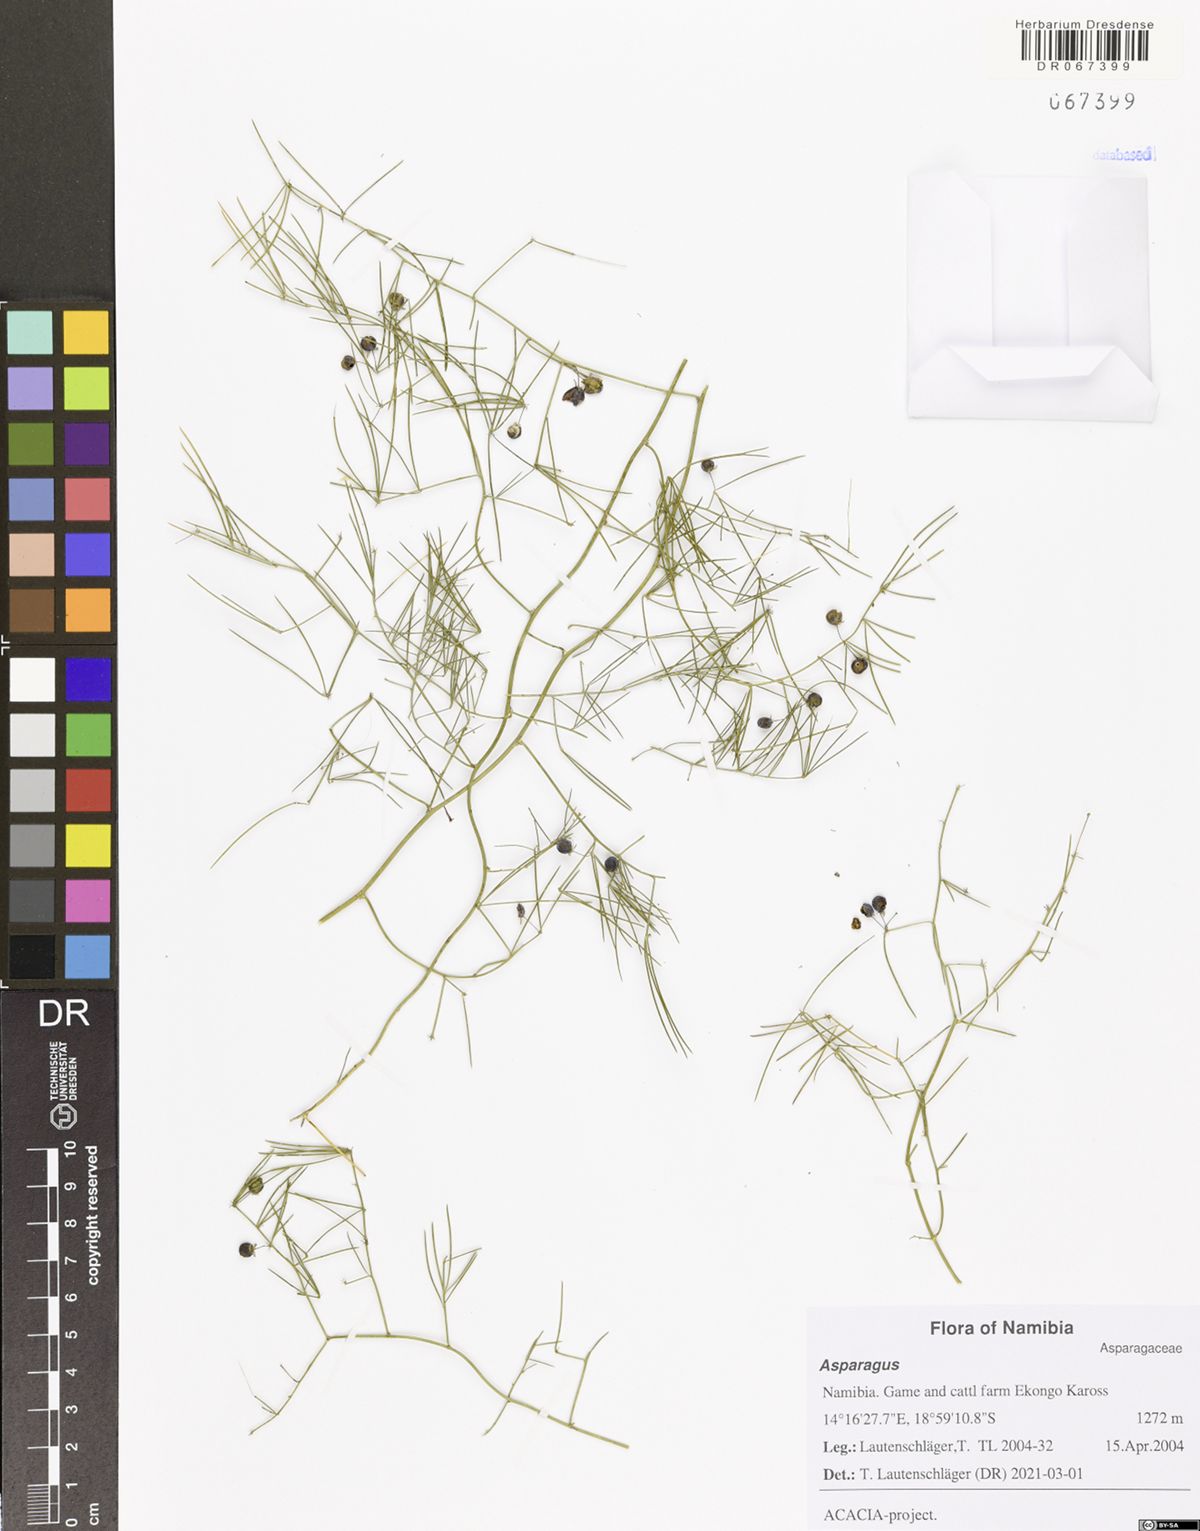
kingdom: Plantae
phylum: Tracheophyta
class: Liliopsida
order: Asparagales
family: Asparagaceae
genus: Asparagus
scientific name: Asparagus
